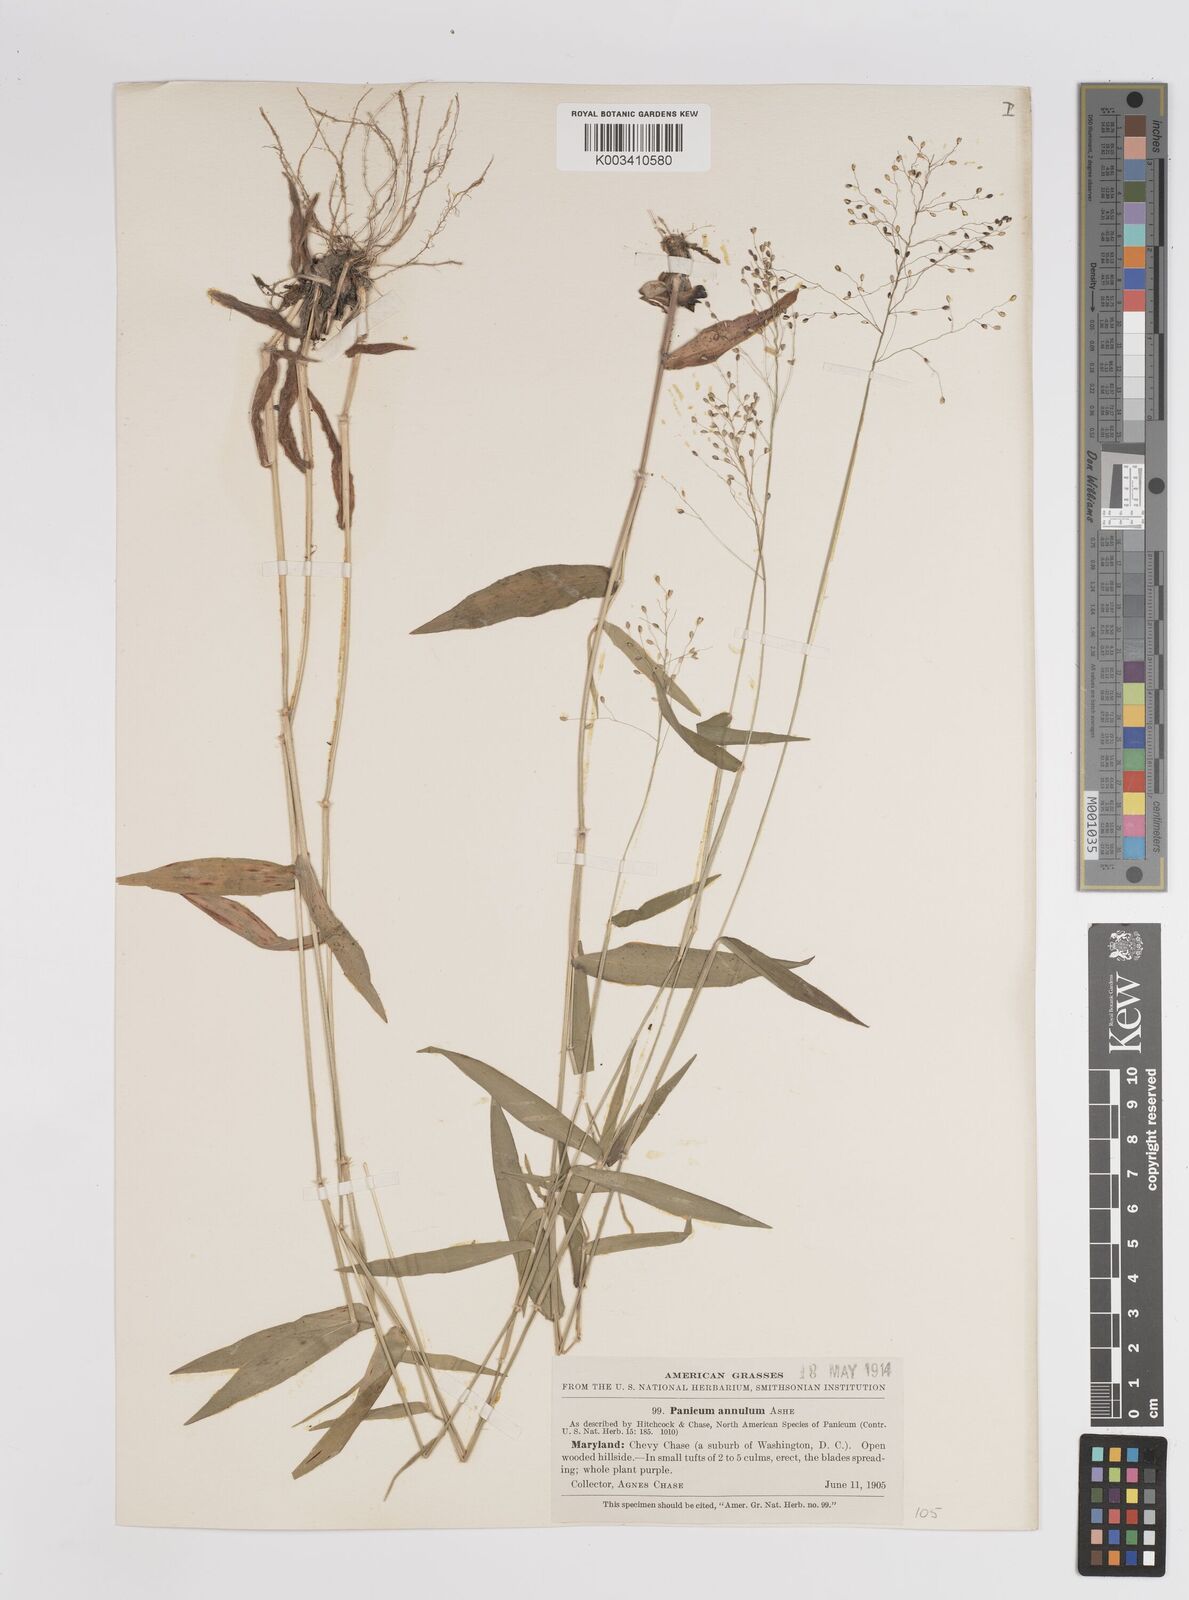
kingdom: Plantae
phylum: Tracheophyta
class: Liliopsida
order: Poales
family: Poaceae
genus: Dichanthelium
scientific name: Dichanthelium mattamuskeetense
